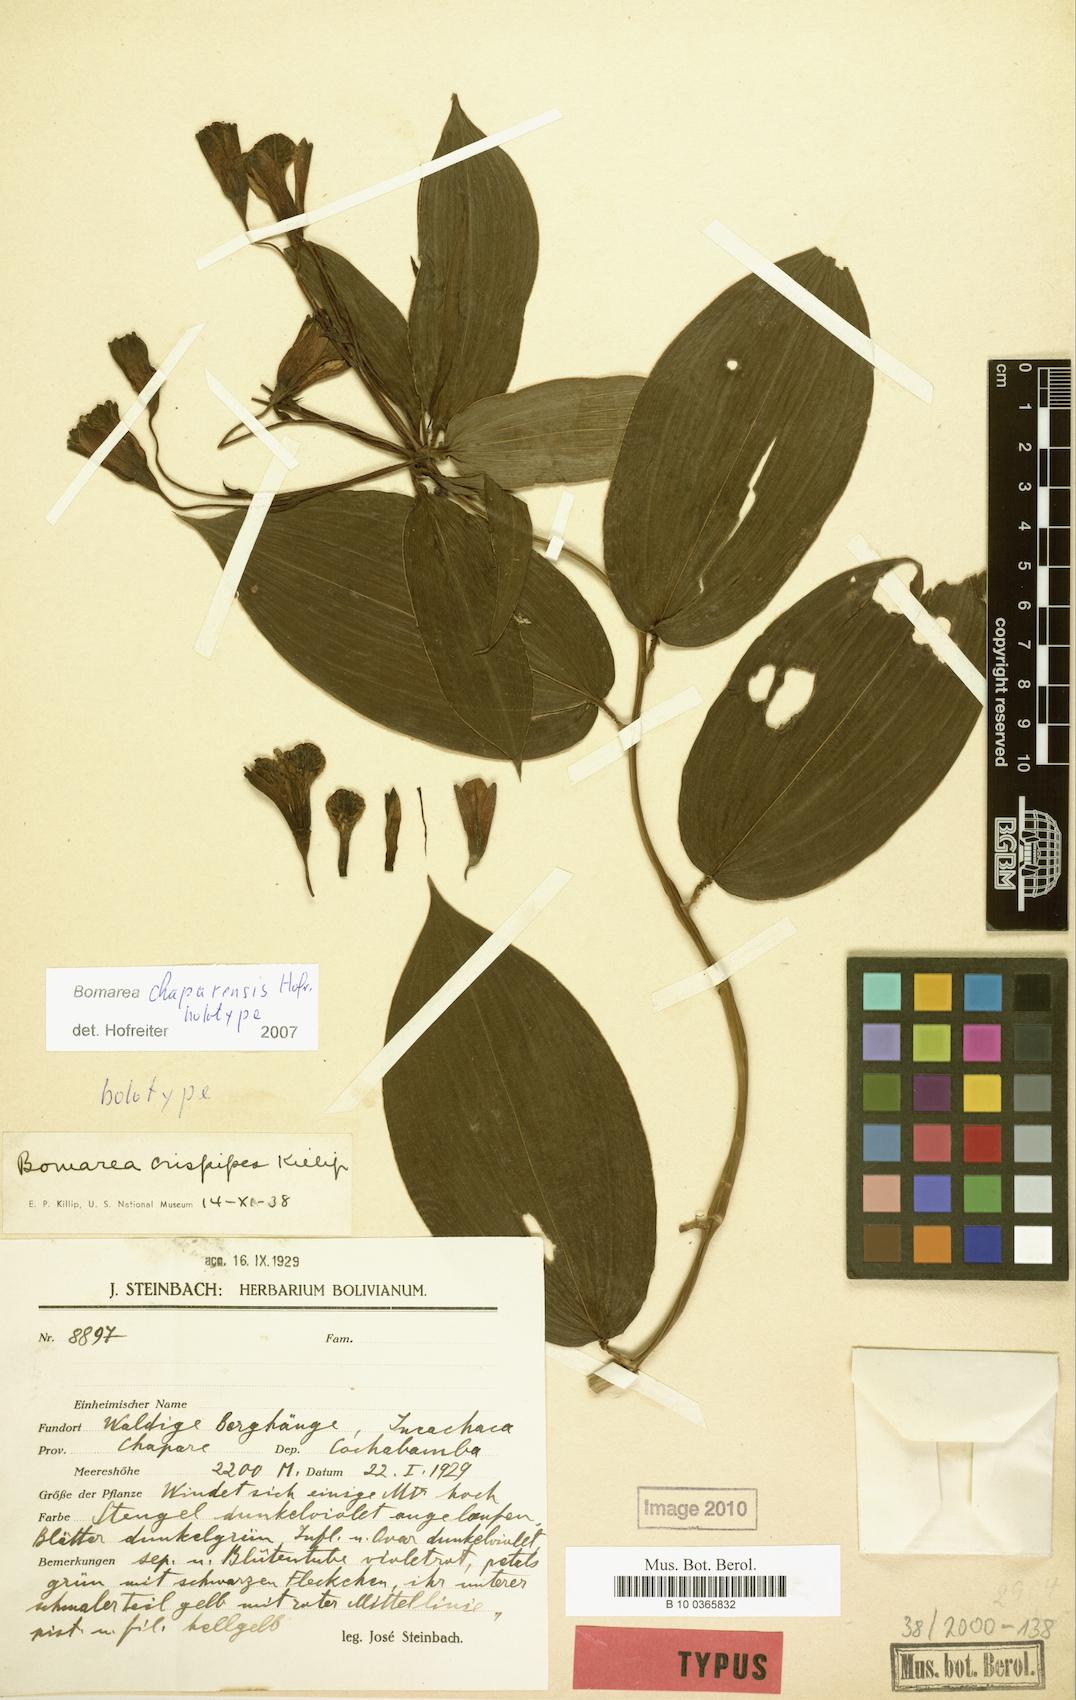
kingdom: Plantae
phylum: Tracheophyta
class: Liliopsida
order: Liliales
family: Alstroemeriaceae
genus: Bomarea
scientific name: Bomarea chaparensis
